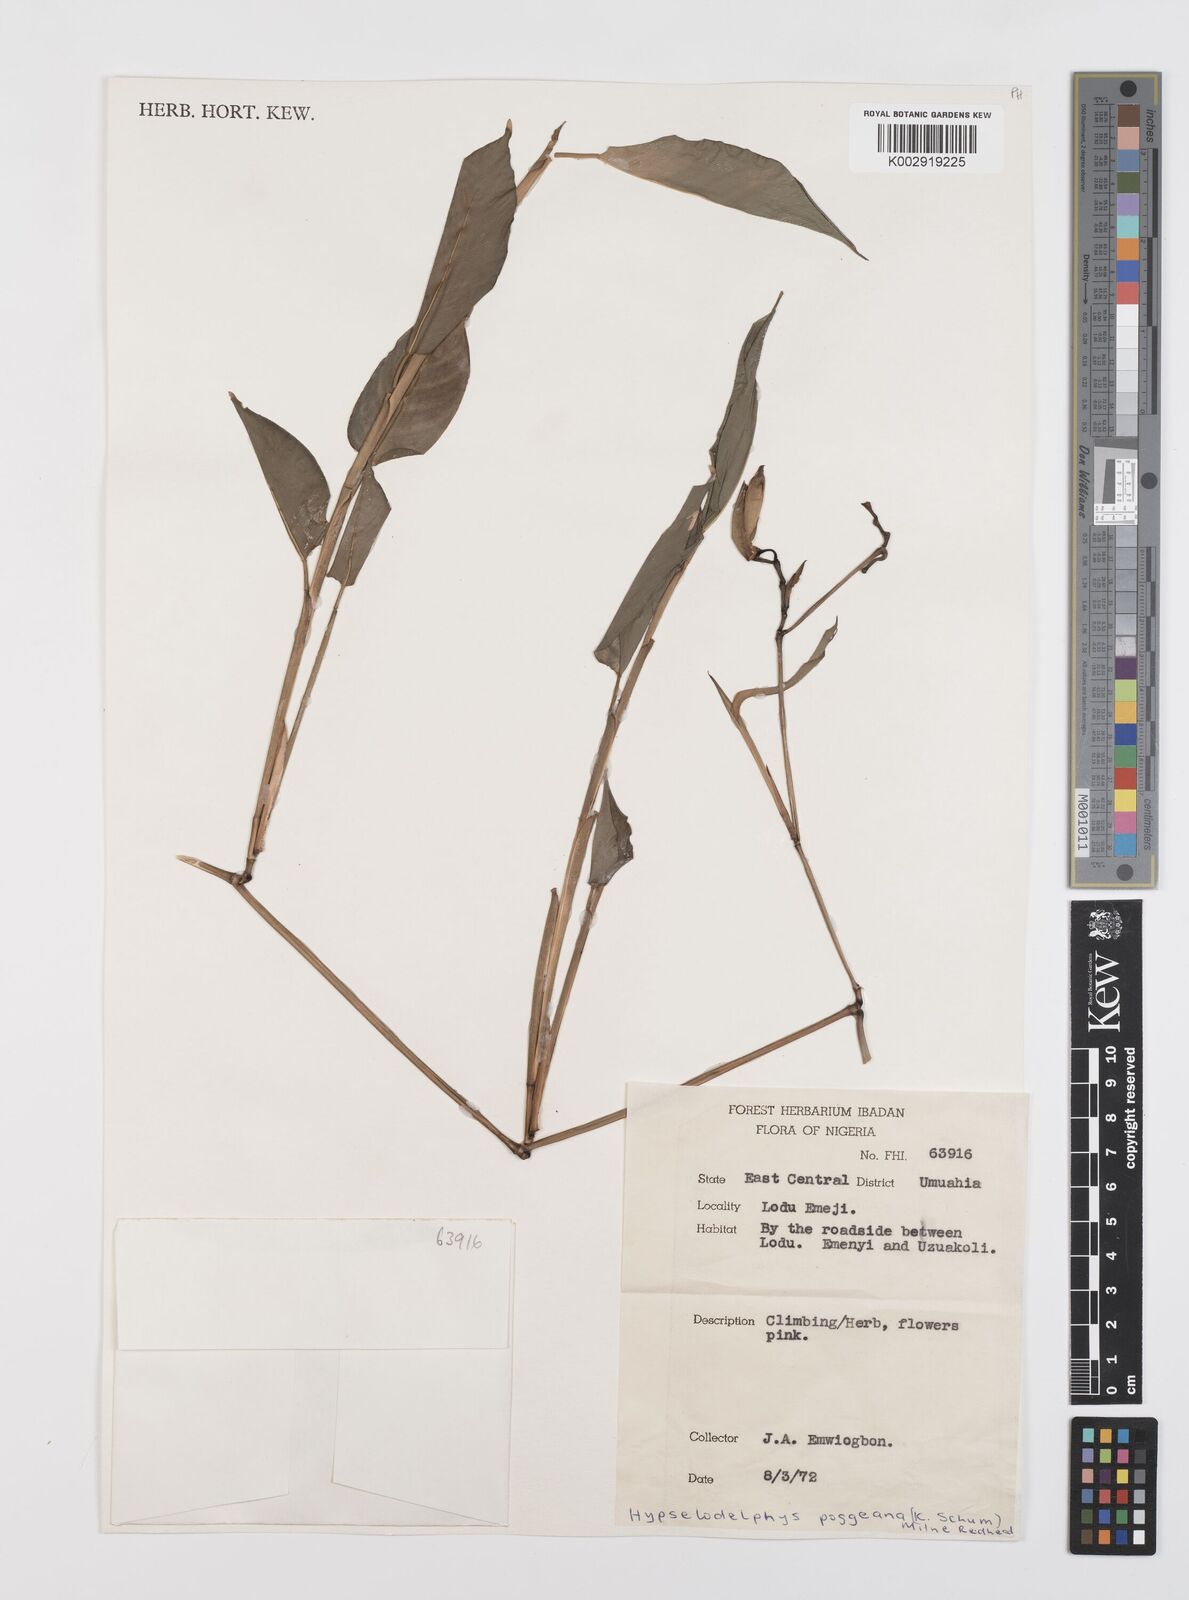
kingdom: Plantae
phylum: Tracheophyta
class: Liliopsida
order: Zingiberales
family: Marantaceae
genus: Hypselodelphys
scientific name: Hypselodelphys poggeana
